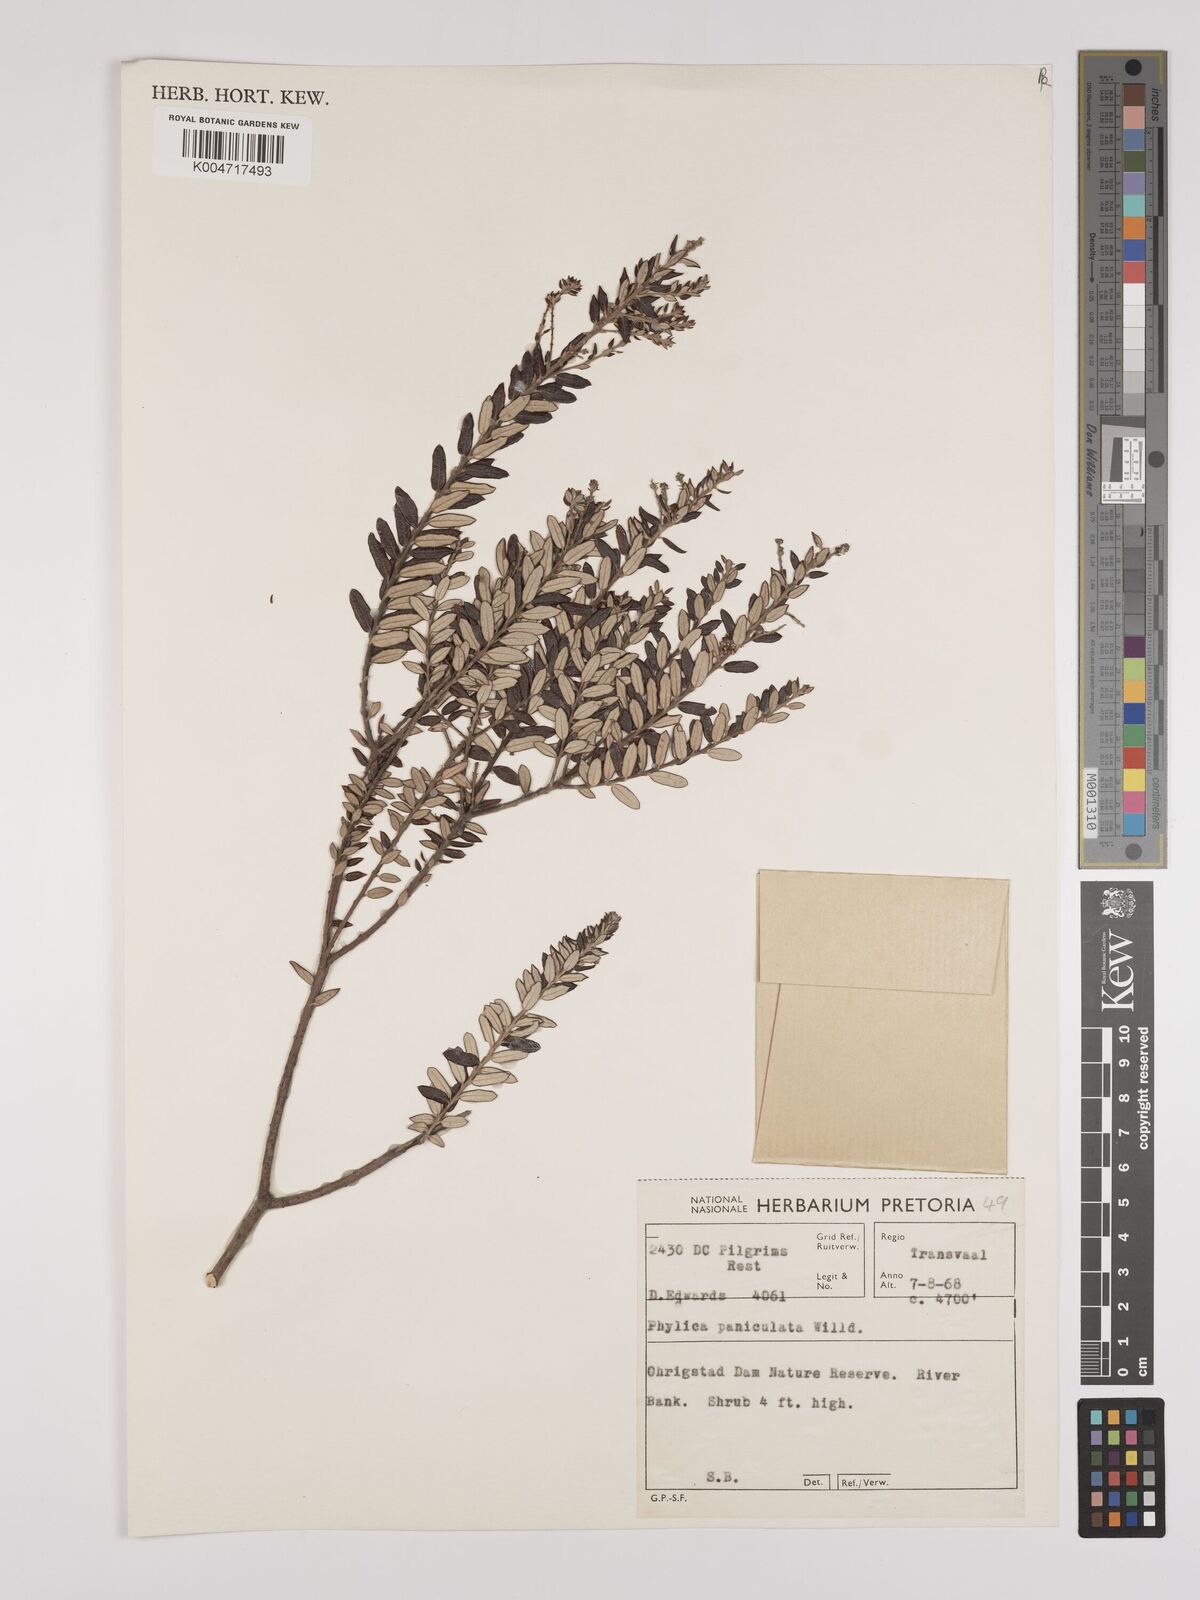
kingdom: Plantae
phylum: Tracheophyta
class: Magnoliopsida
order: Rosales
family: Rhamnaceae
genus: Phylica
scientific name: Phylica paniculata
